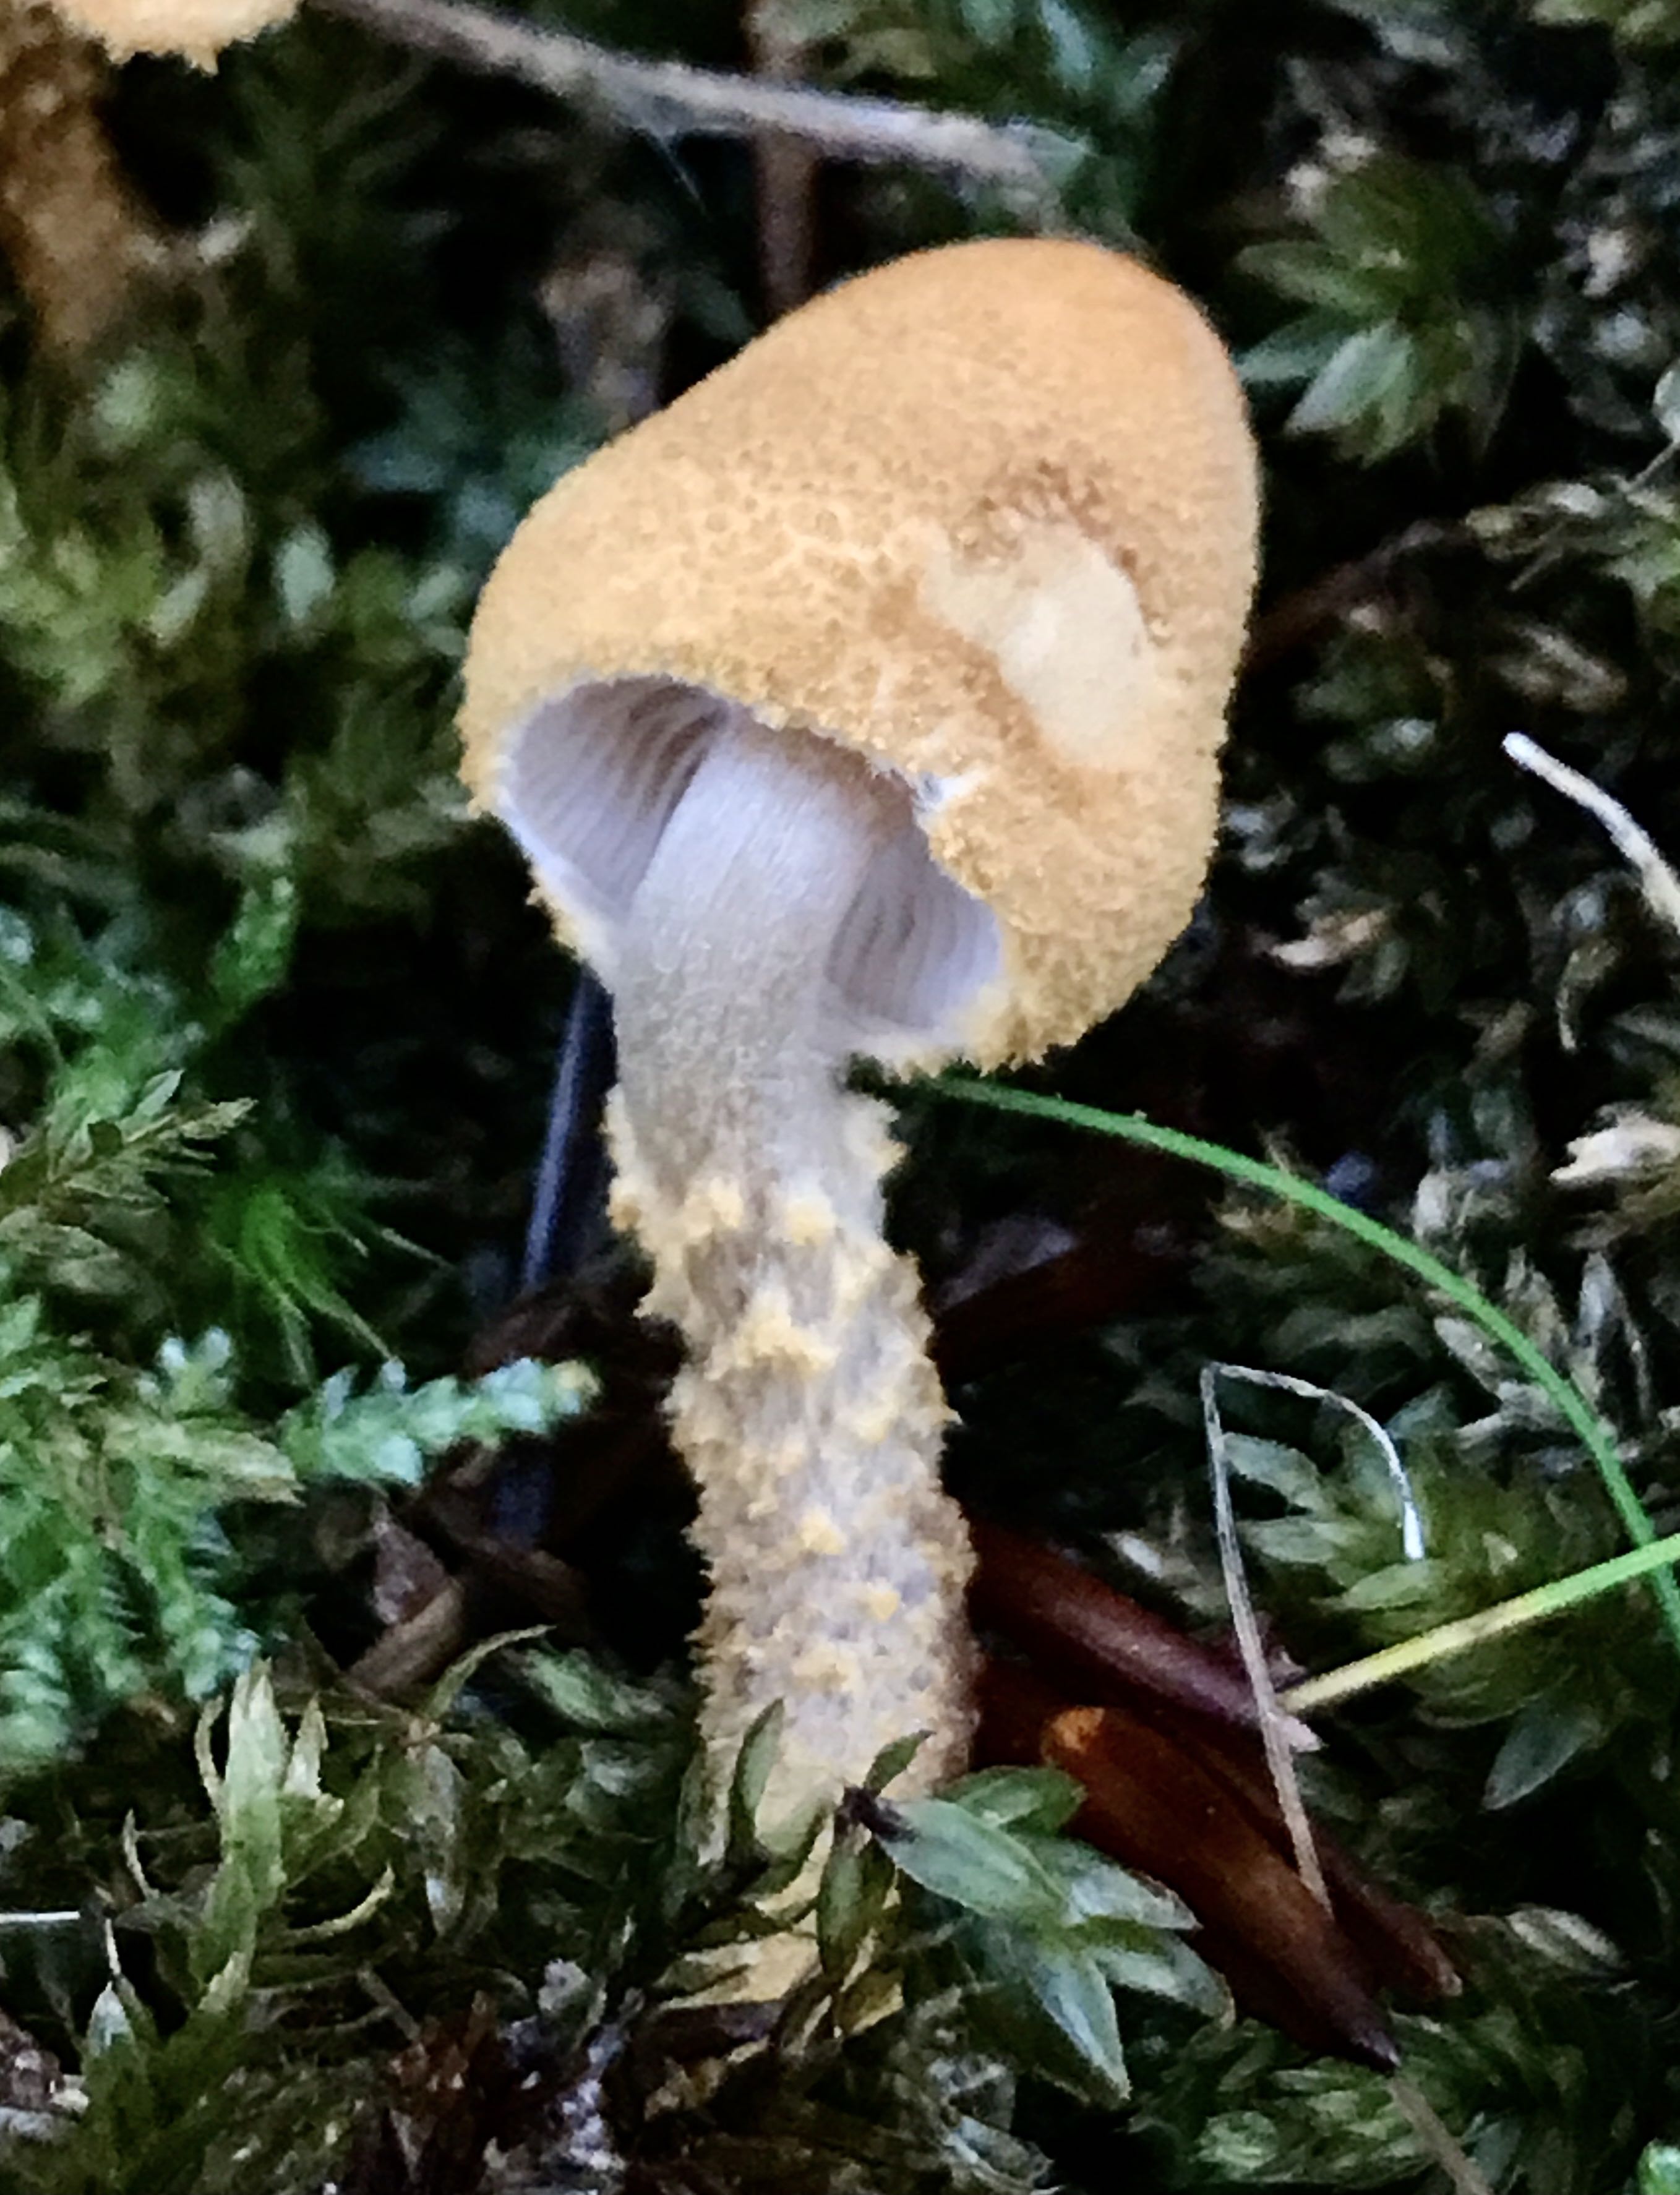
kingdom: Fungi
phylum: Basidiomycota
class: Agaricomycetes
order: Agaricales
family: Tricholomataceae
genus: Cystoderma
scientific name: Cystoderma jasonis
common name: gulkødet grynhat
